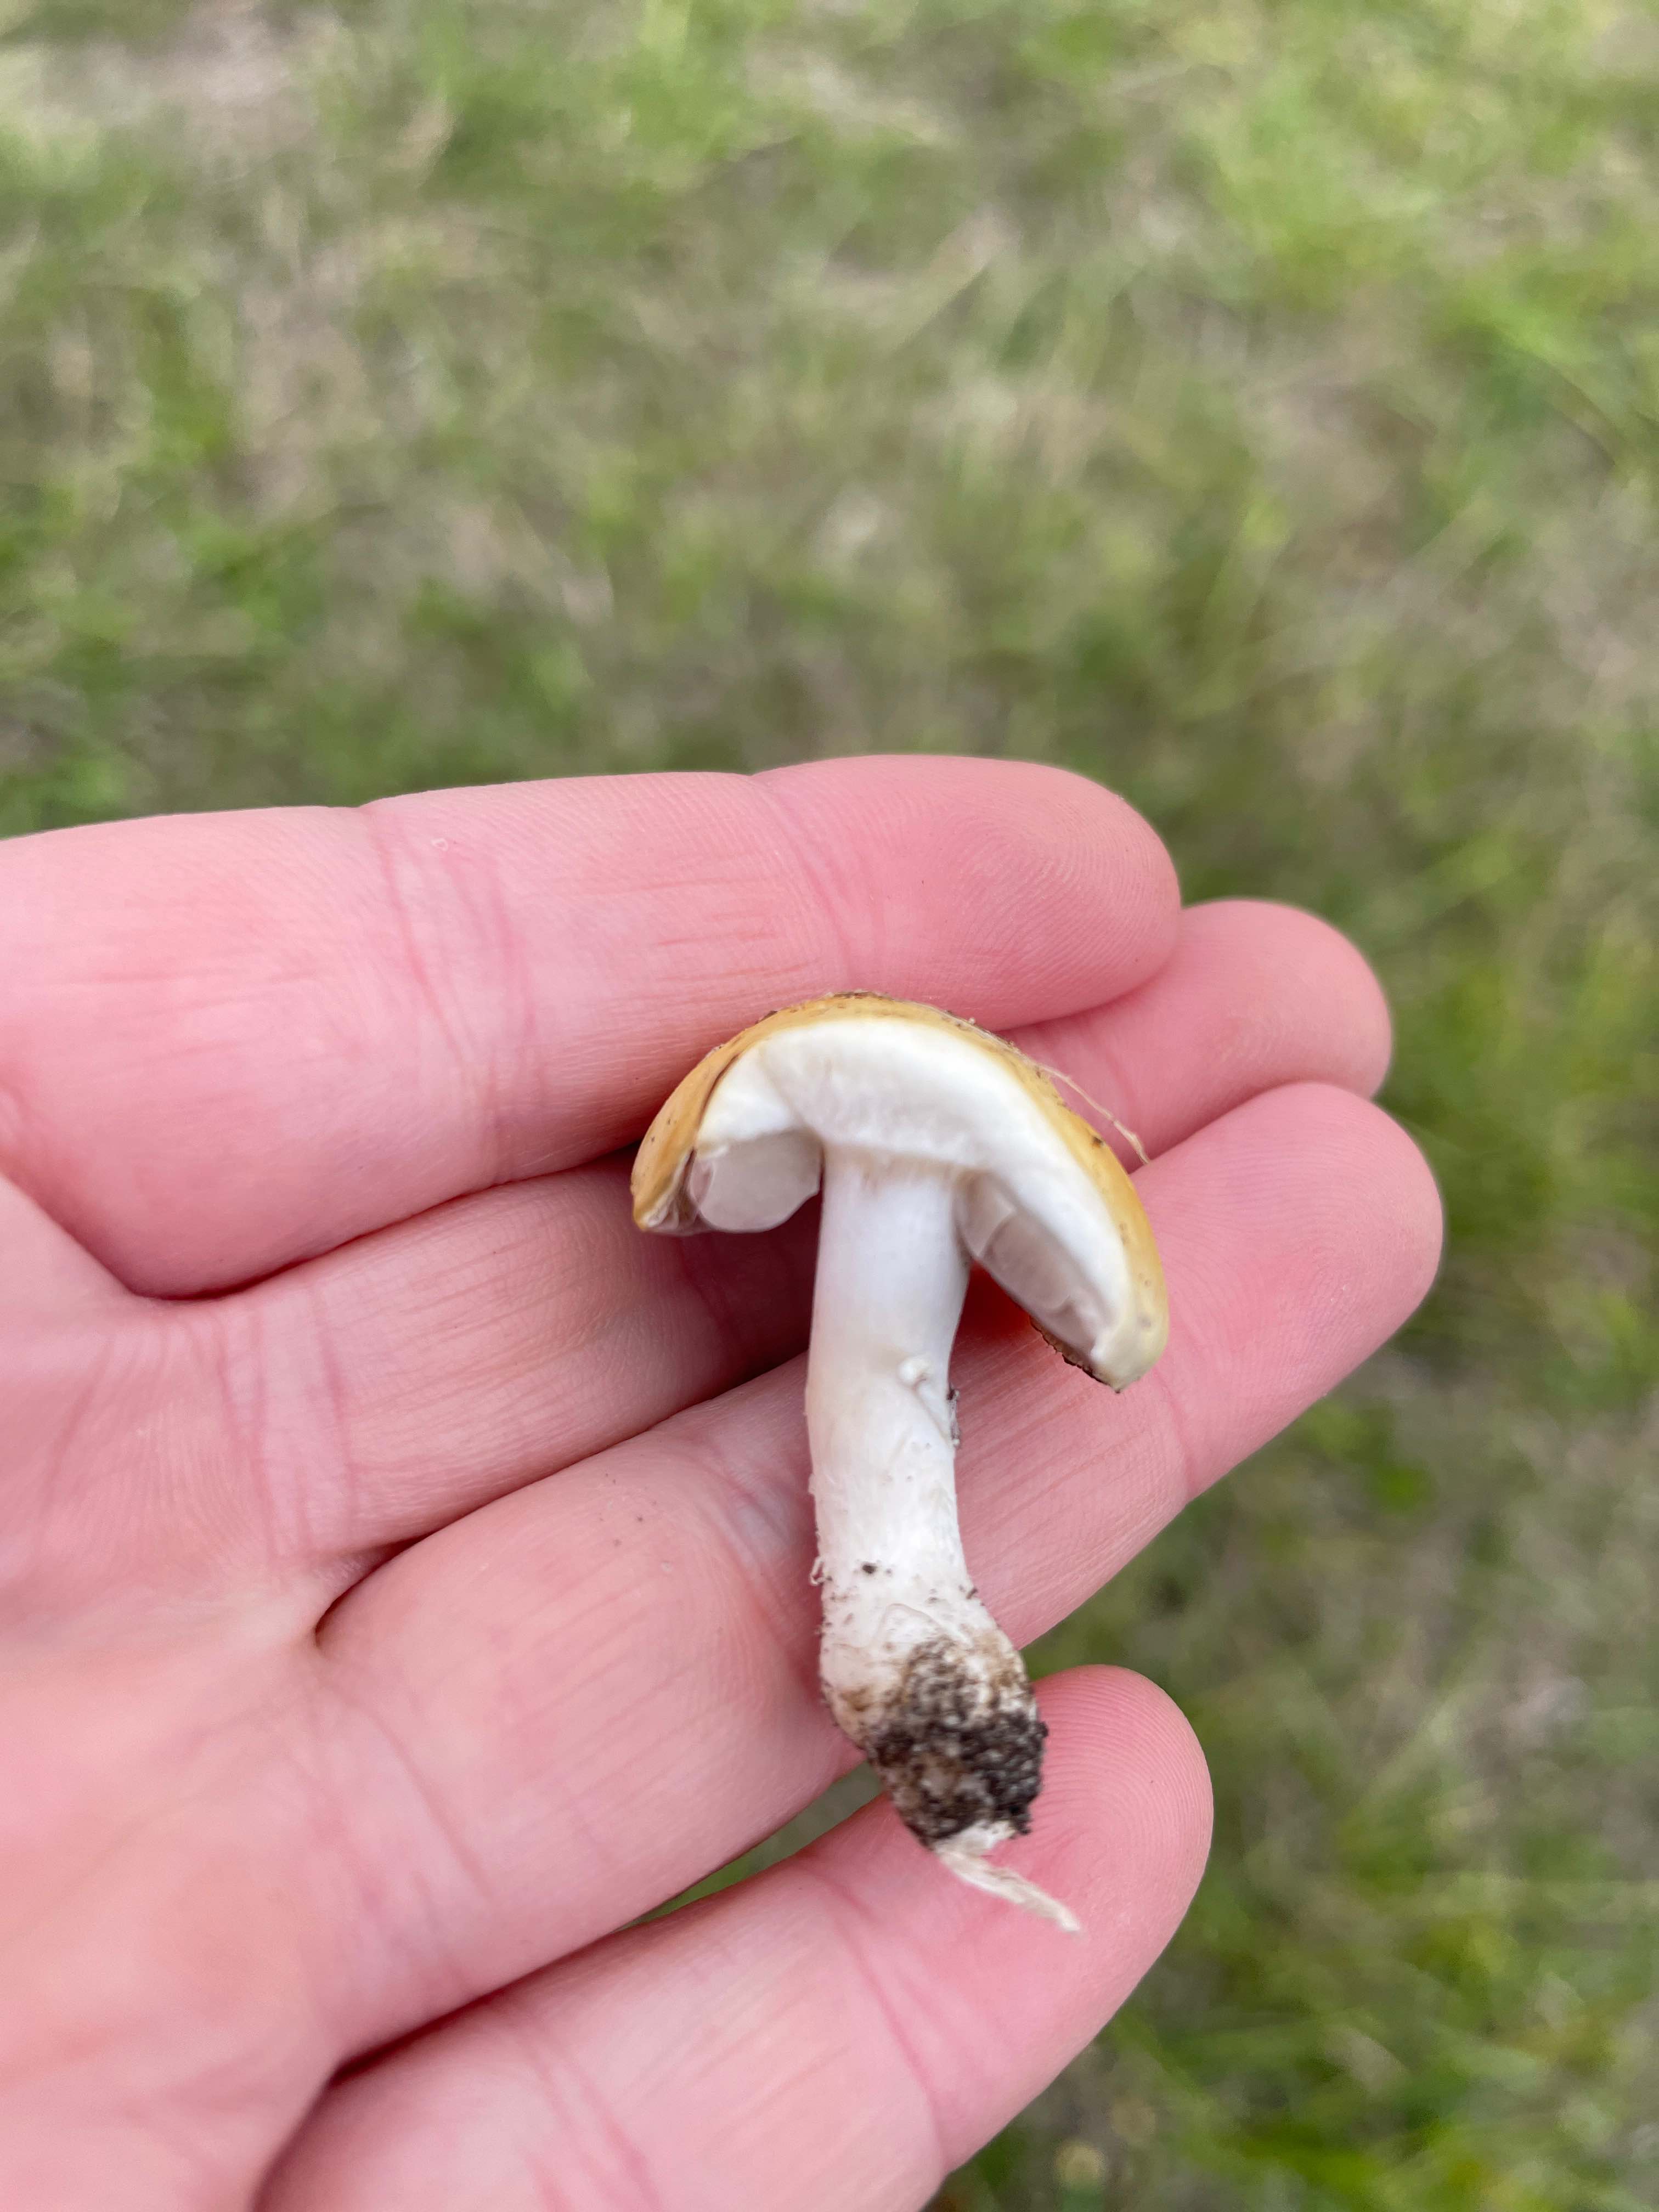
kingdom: Fungi
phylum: Basidiomycota
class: Agaricomycetes
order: Agaricales
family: Hymenogastraceae
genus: Psilocybe
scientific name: Psilocybe coronilla
